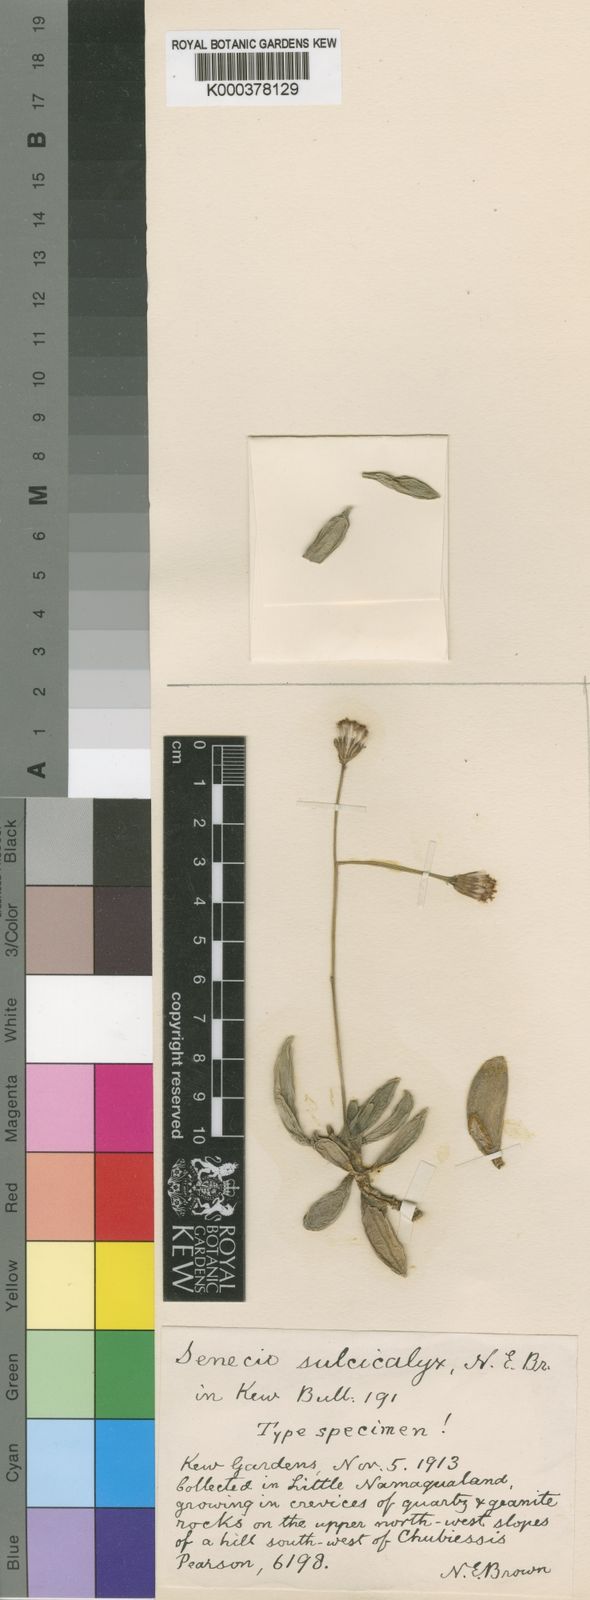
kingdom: Plantae
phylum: Tracheophyta
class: Magnoliopsida
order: Asterales
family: Asteraceae
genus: Curio
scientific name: Curio sulcicalyx
